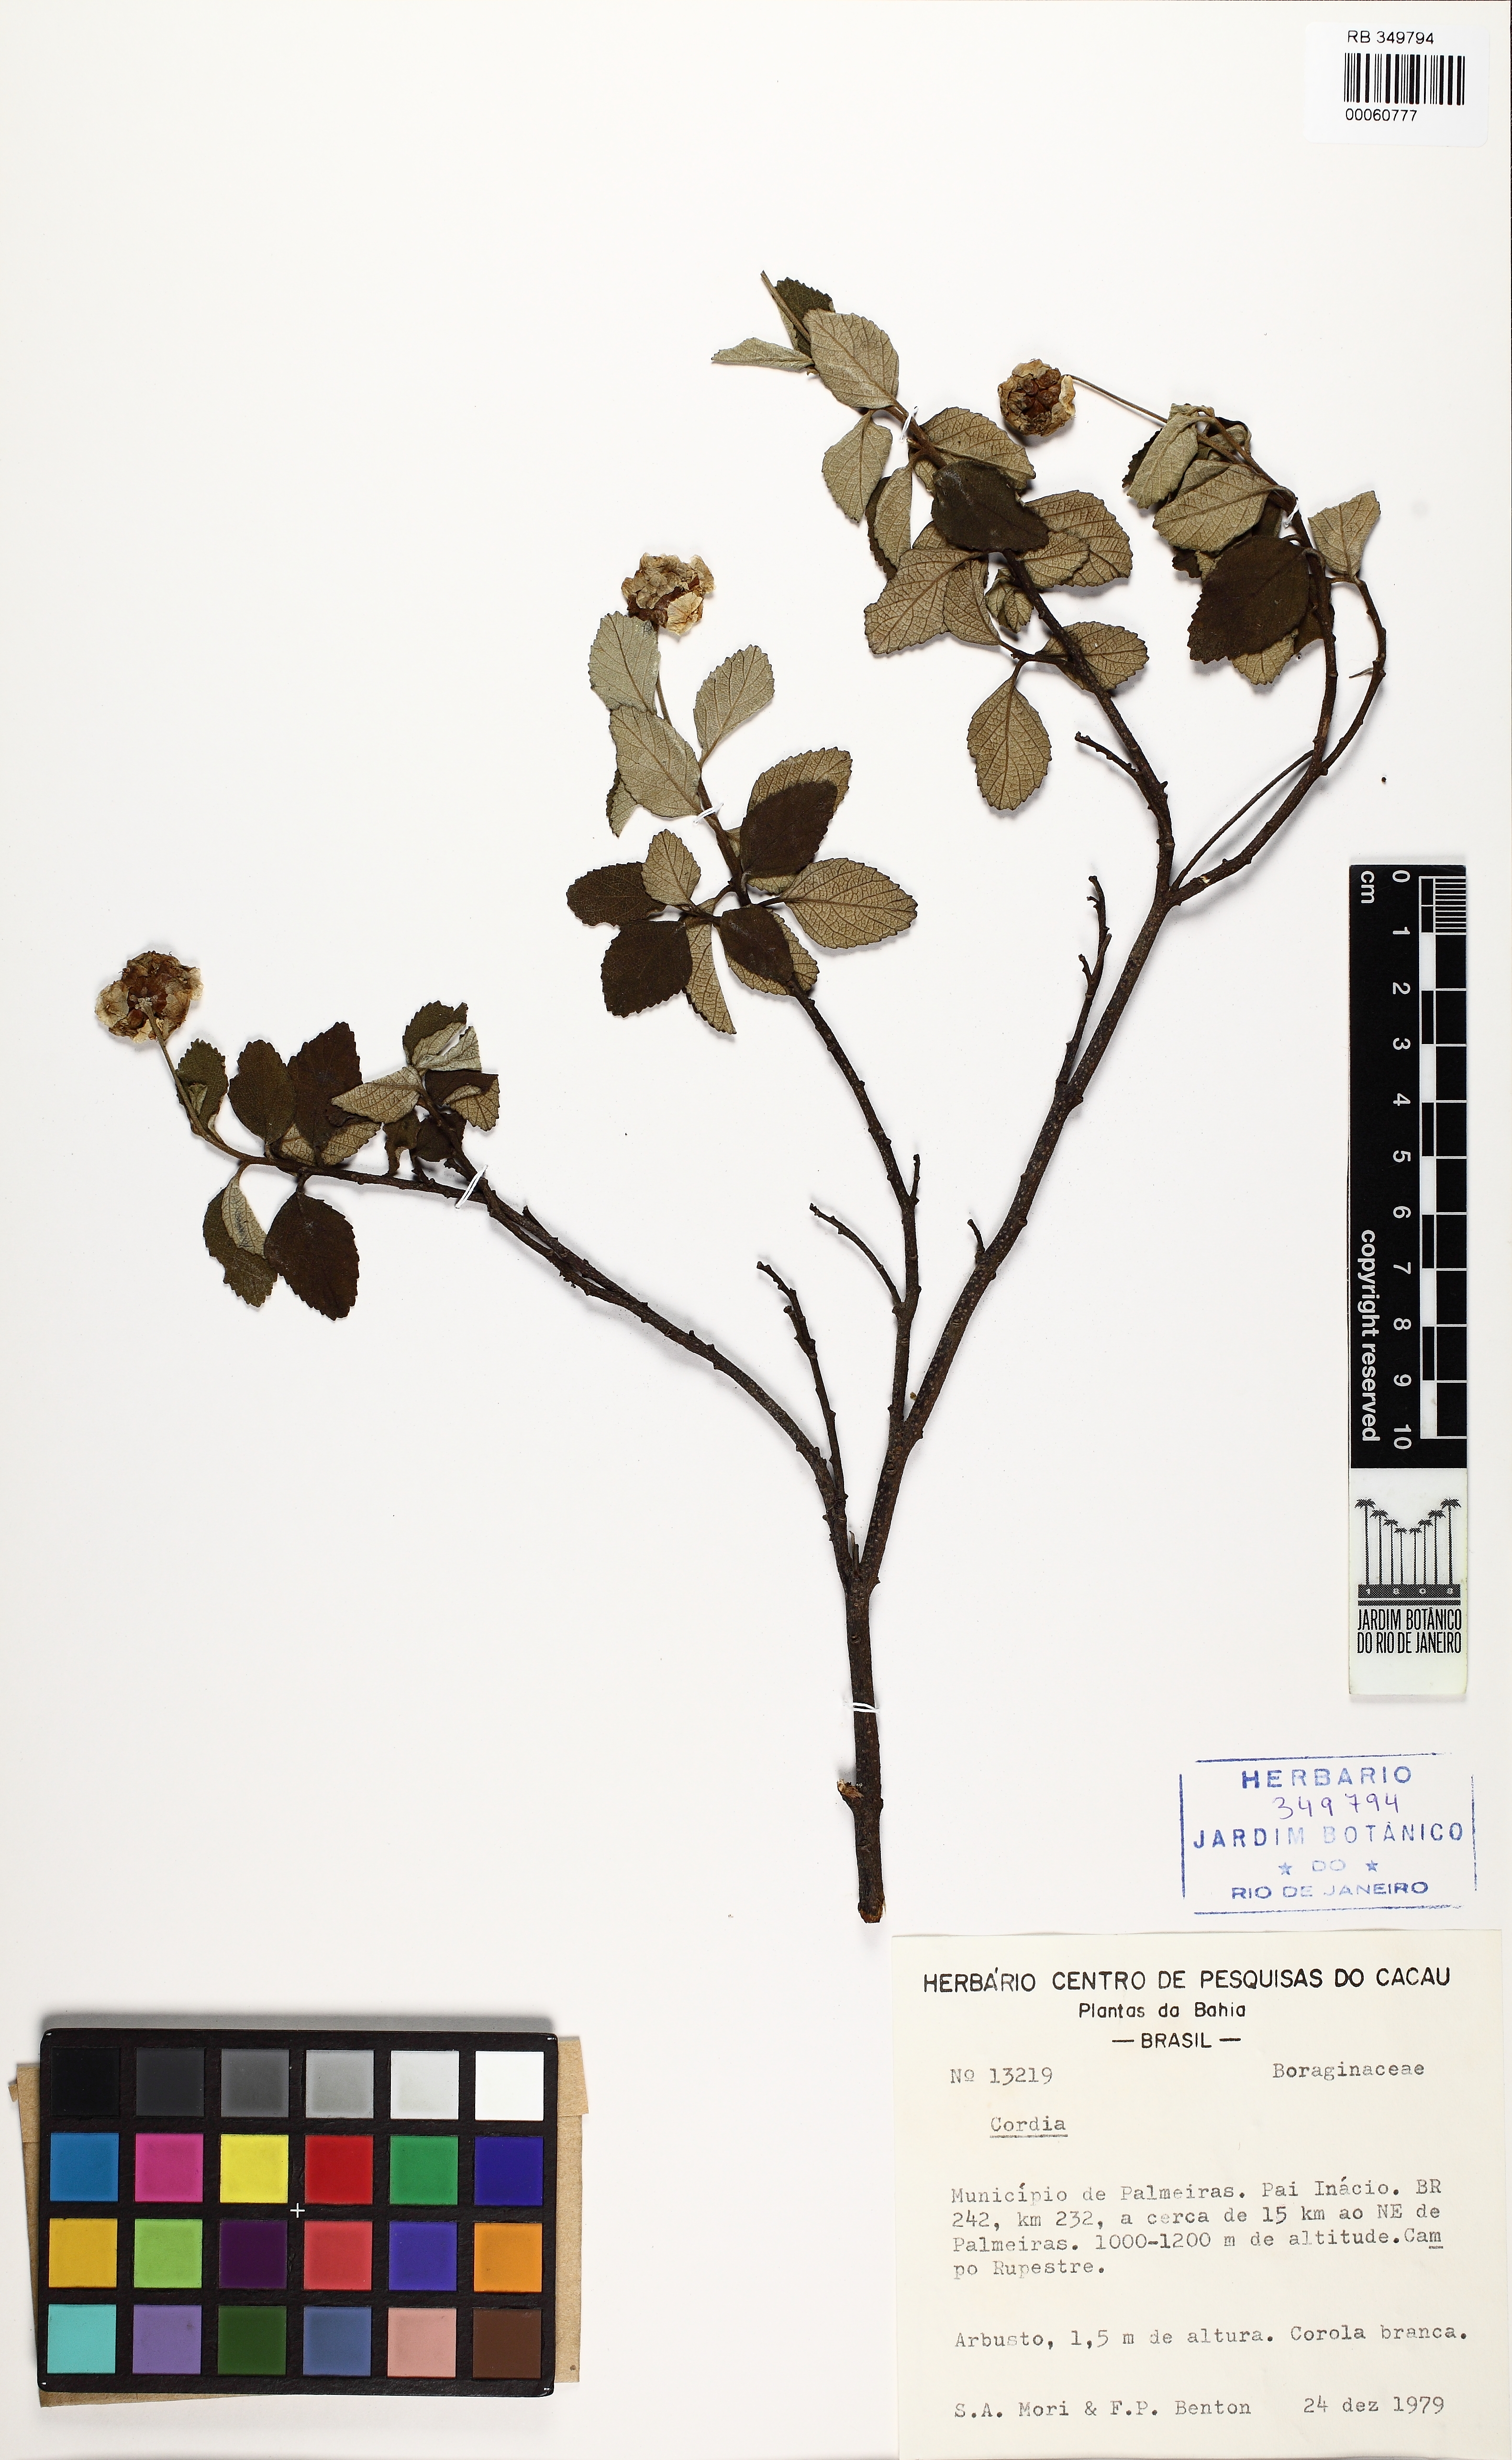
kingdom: Plantae
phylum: Tracheophyta
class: Magnoliopsida
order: Boraginales
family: Cordiaceae
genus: Cordia
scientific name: Cordia
